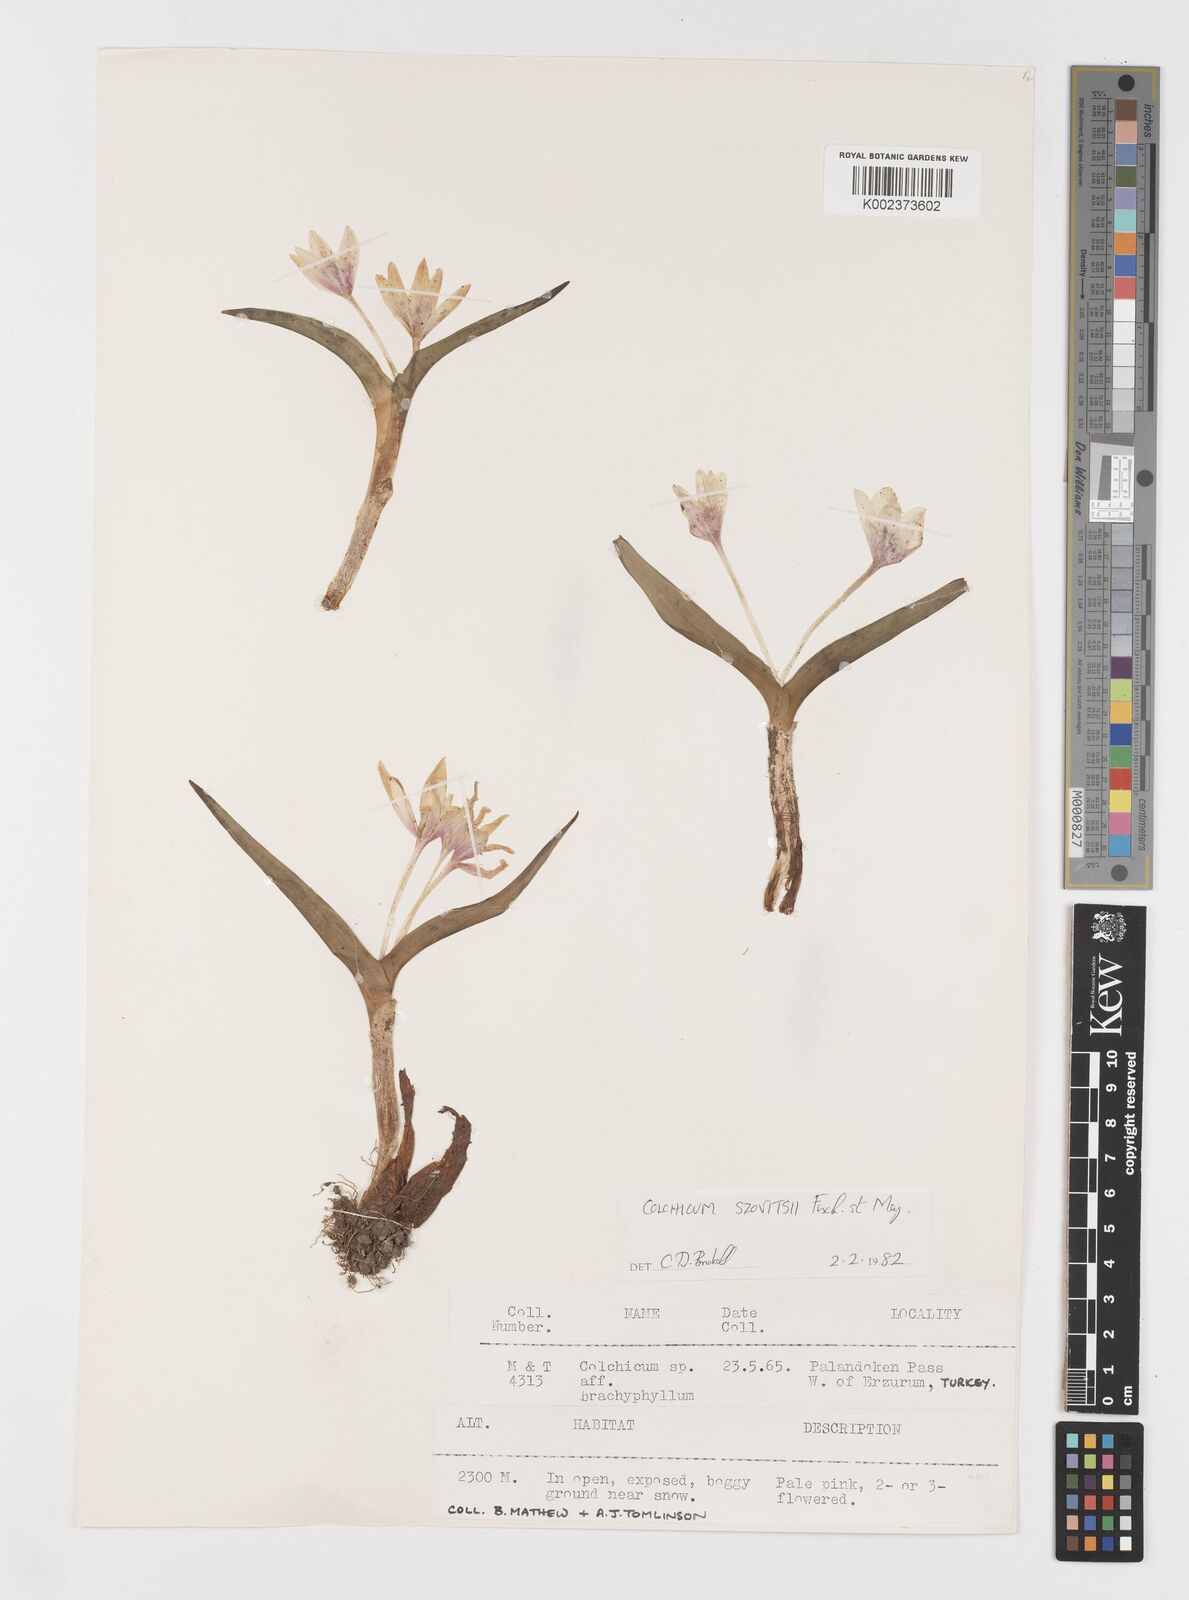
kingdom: Plantae
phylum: Tracheophyta
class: Liliopsida
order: Liliales
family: Colchicaceae
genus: Colchicum
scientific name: Colchicum szovitsii
